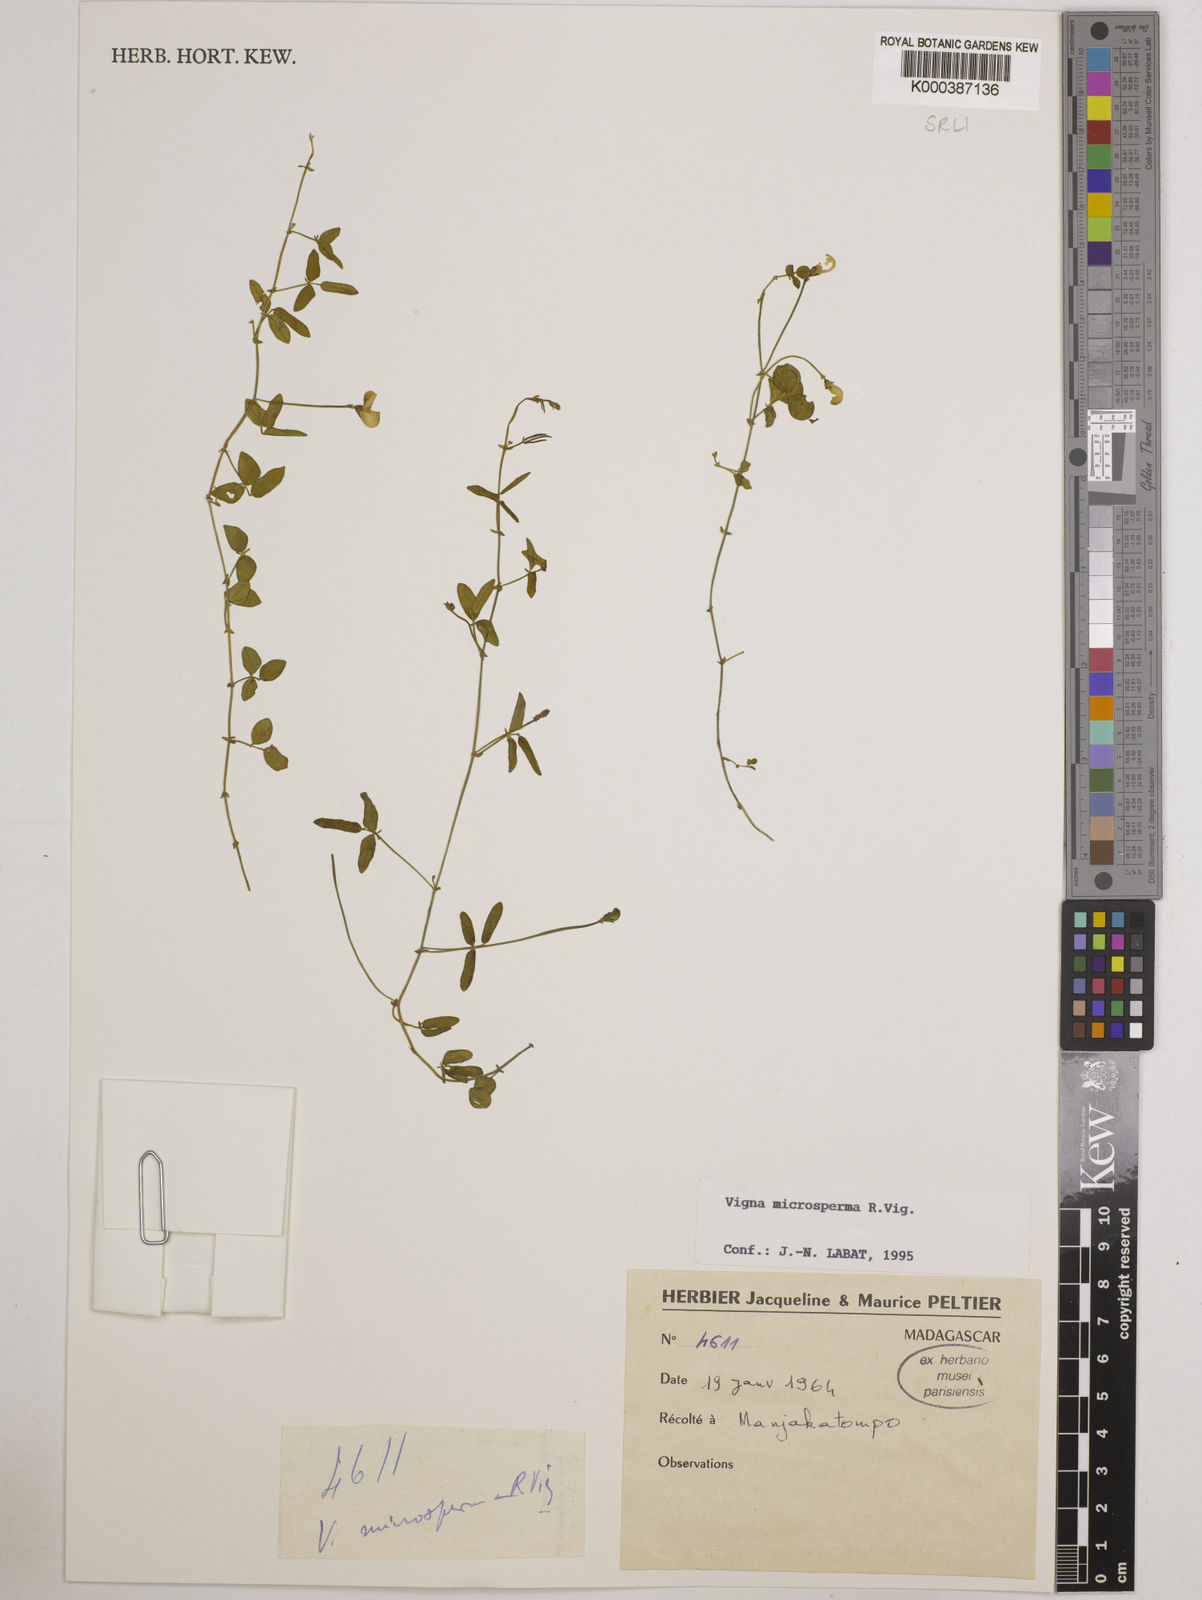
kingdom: Plantae
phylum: Tracheophyta
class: Magnoliopsida
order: Fabales
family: Fabaceae
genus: Vigna
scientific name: Vigna microsperma
